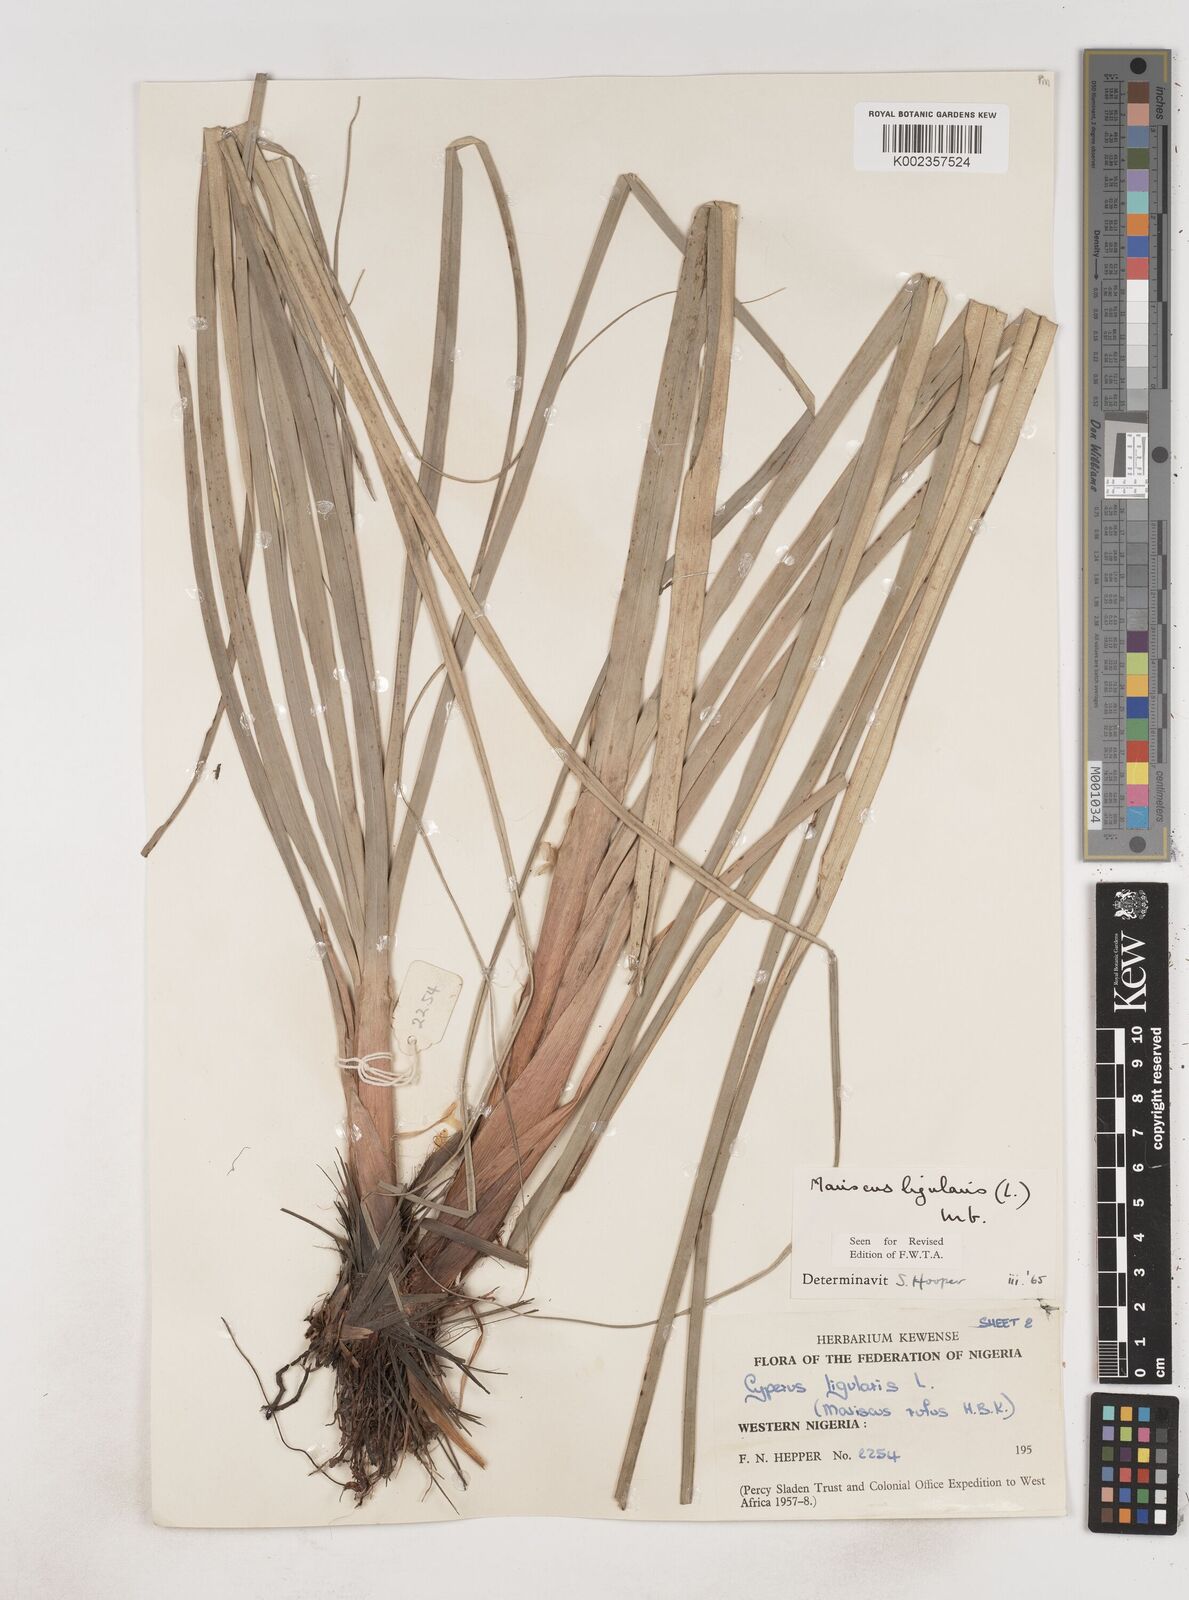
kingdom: Plantae
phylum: Tracheophyta
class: Liliopsida
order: Poales
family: Cyperaceae
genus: Cyperus
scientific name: Cyperus ligularis
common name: Swamp flat sedge
